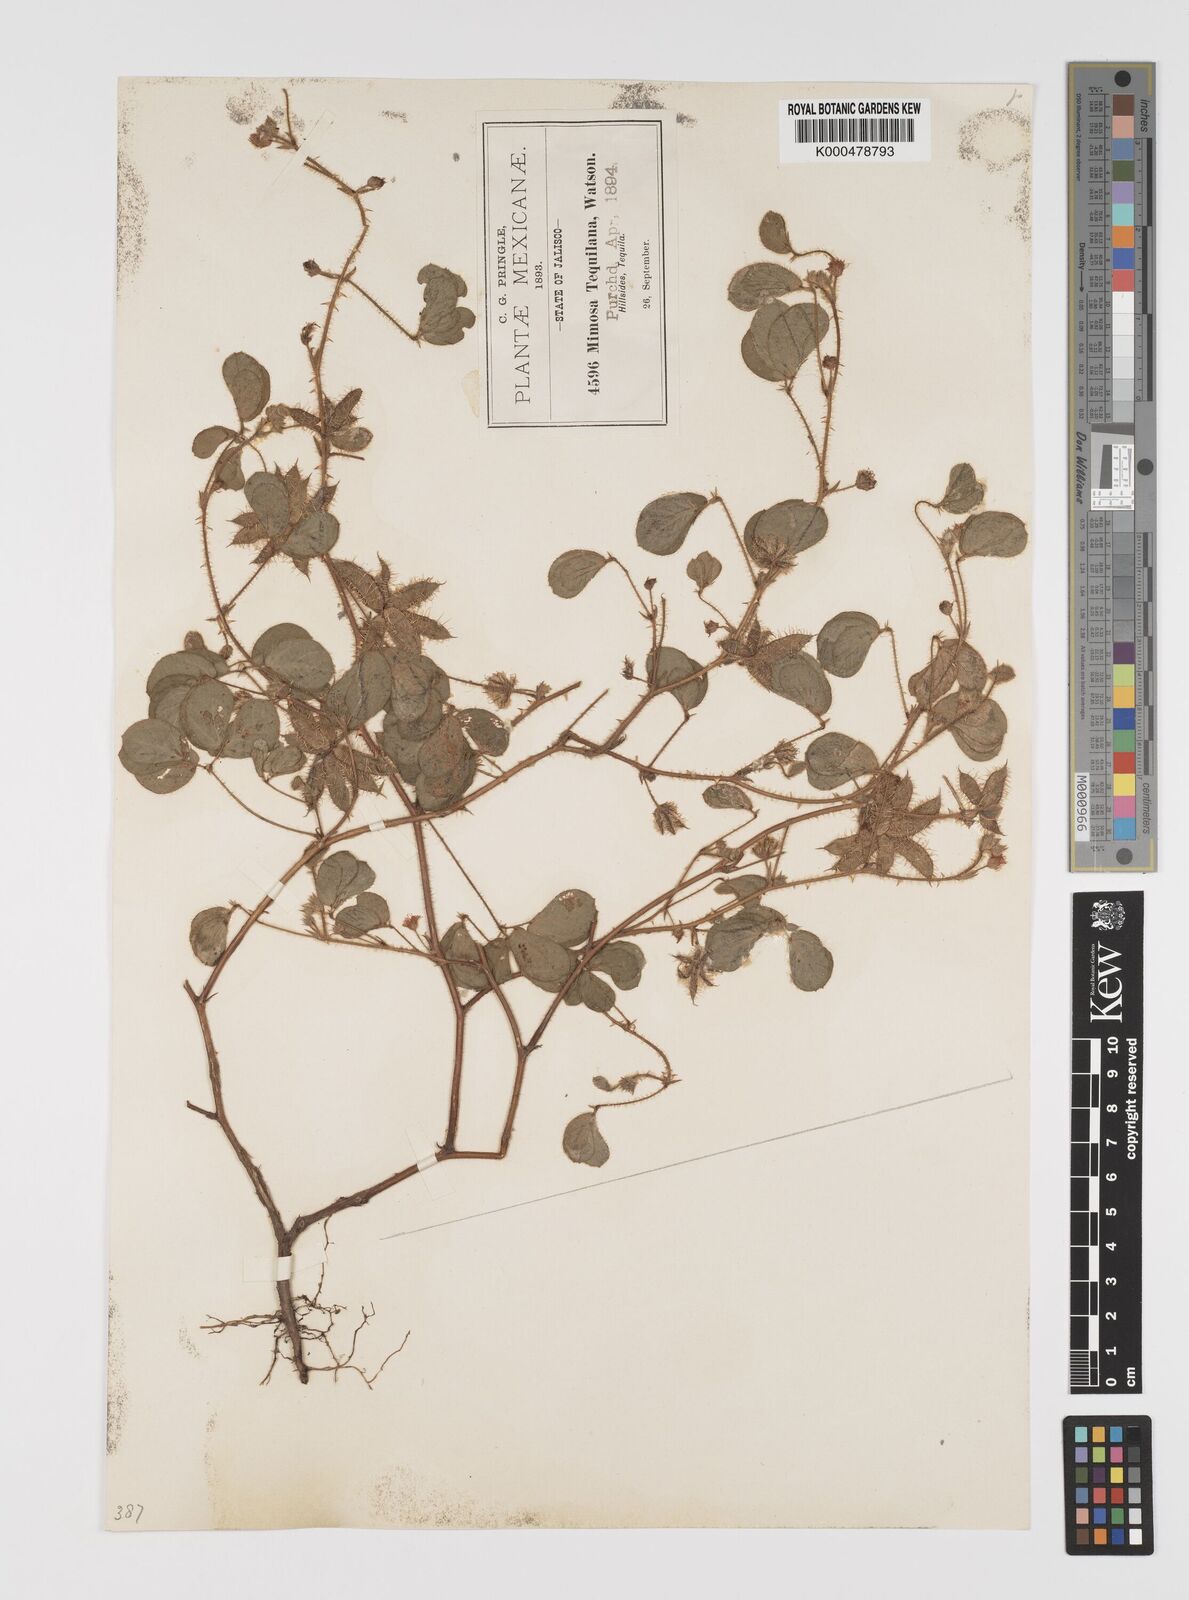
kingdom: Plantae
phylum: Tracheophyta
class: Magnoliopsida
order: Fabales
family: Fabaceae
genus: Mimosa
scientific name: Mimosa tequilana
